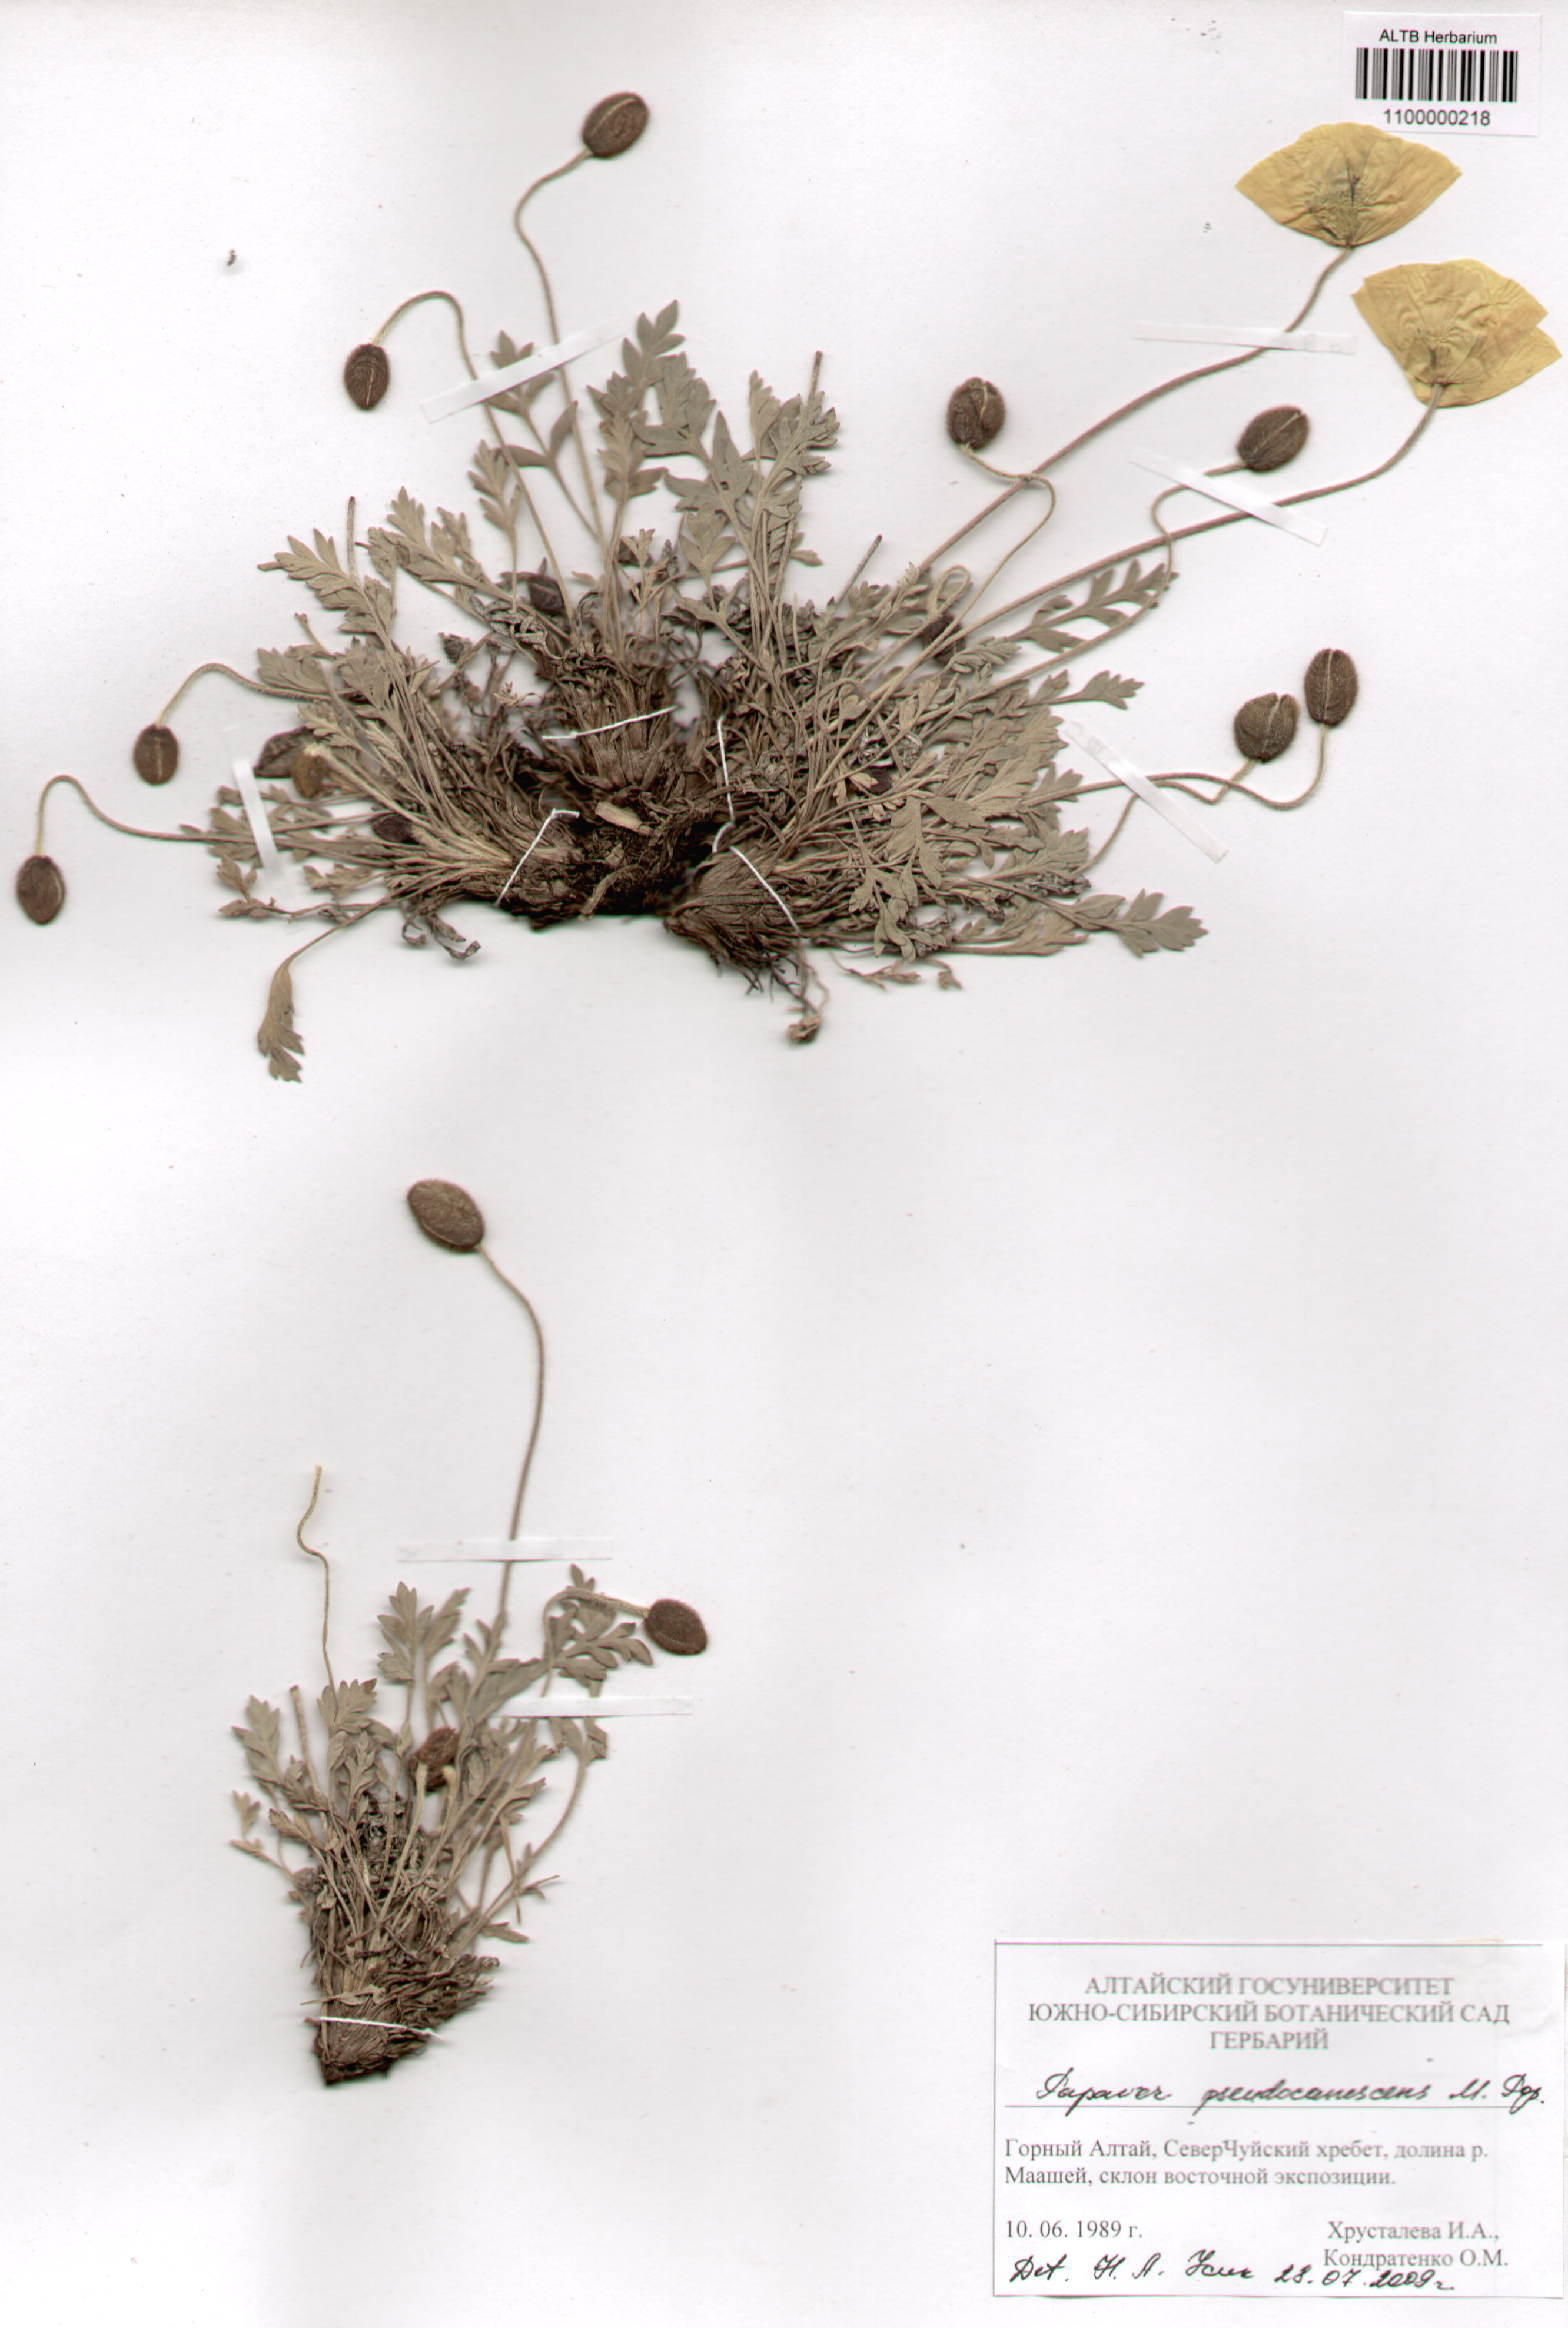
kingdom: Plantae
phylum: Tracheophyta
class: Magnoliopsida
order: Ranunculales
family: Papaveraceae
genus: Papaver
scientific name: Papaver canescens
